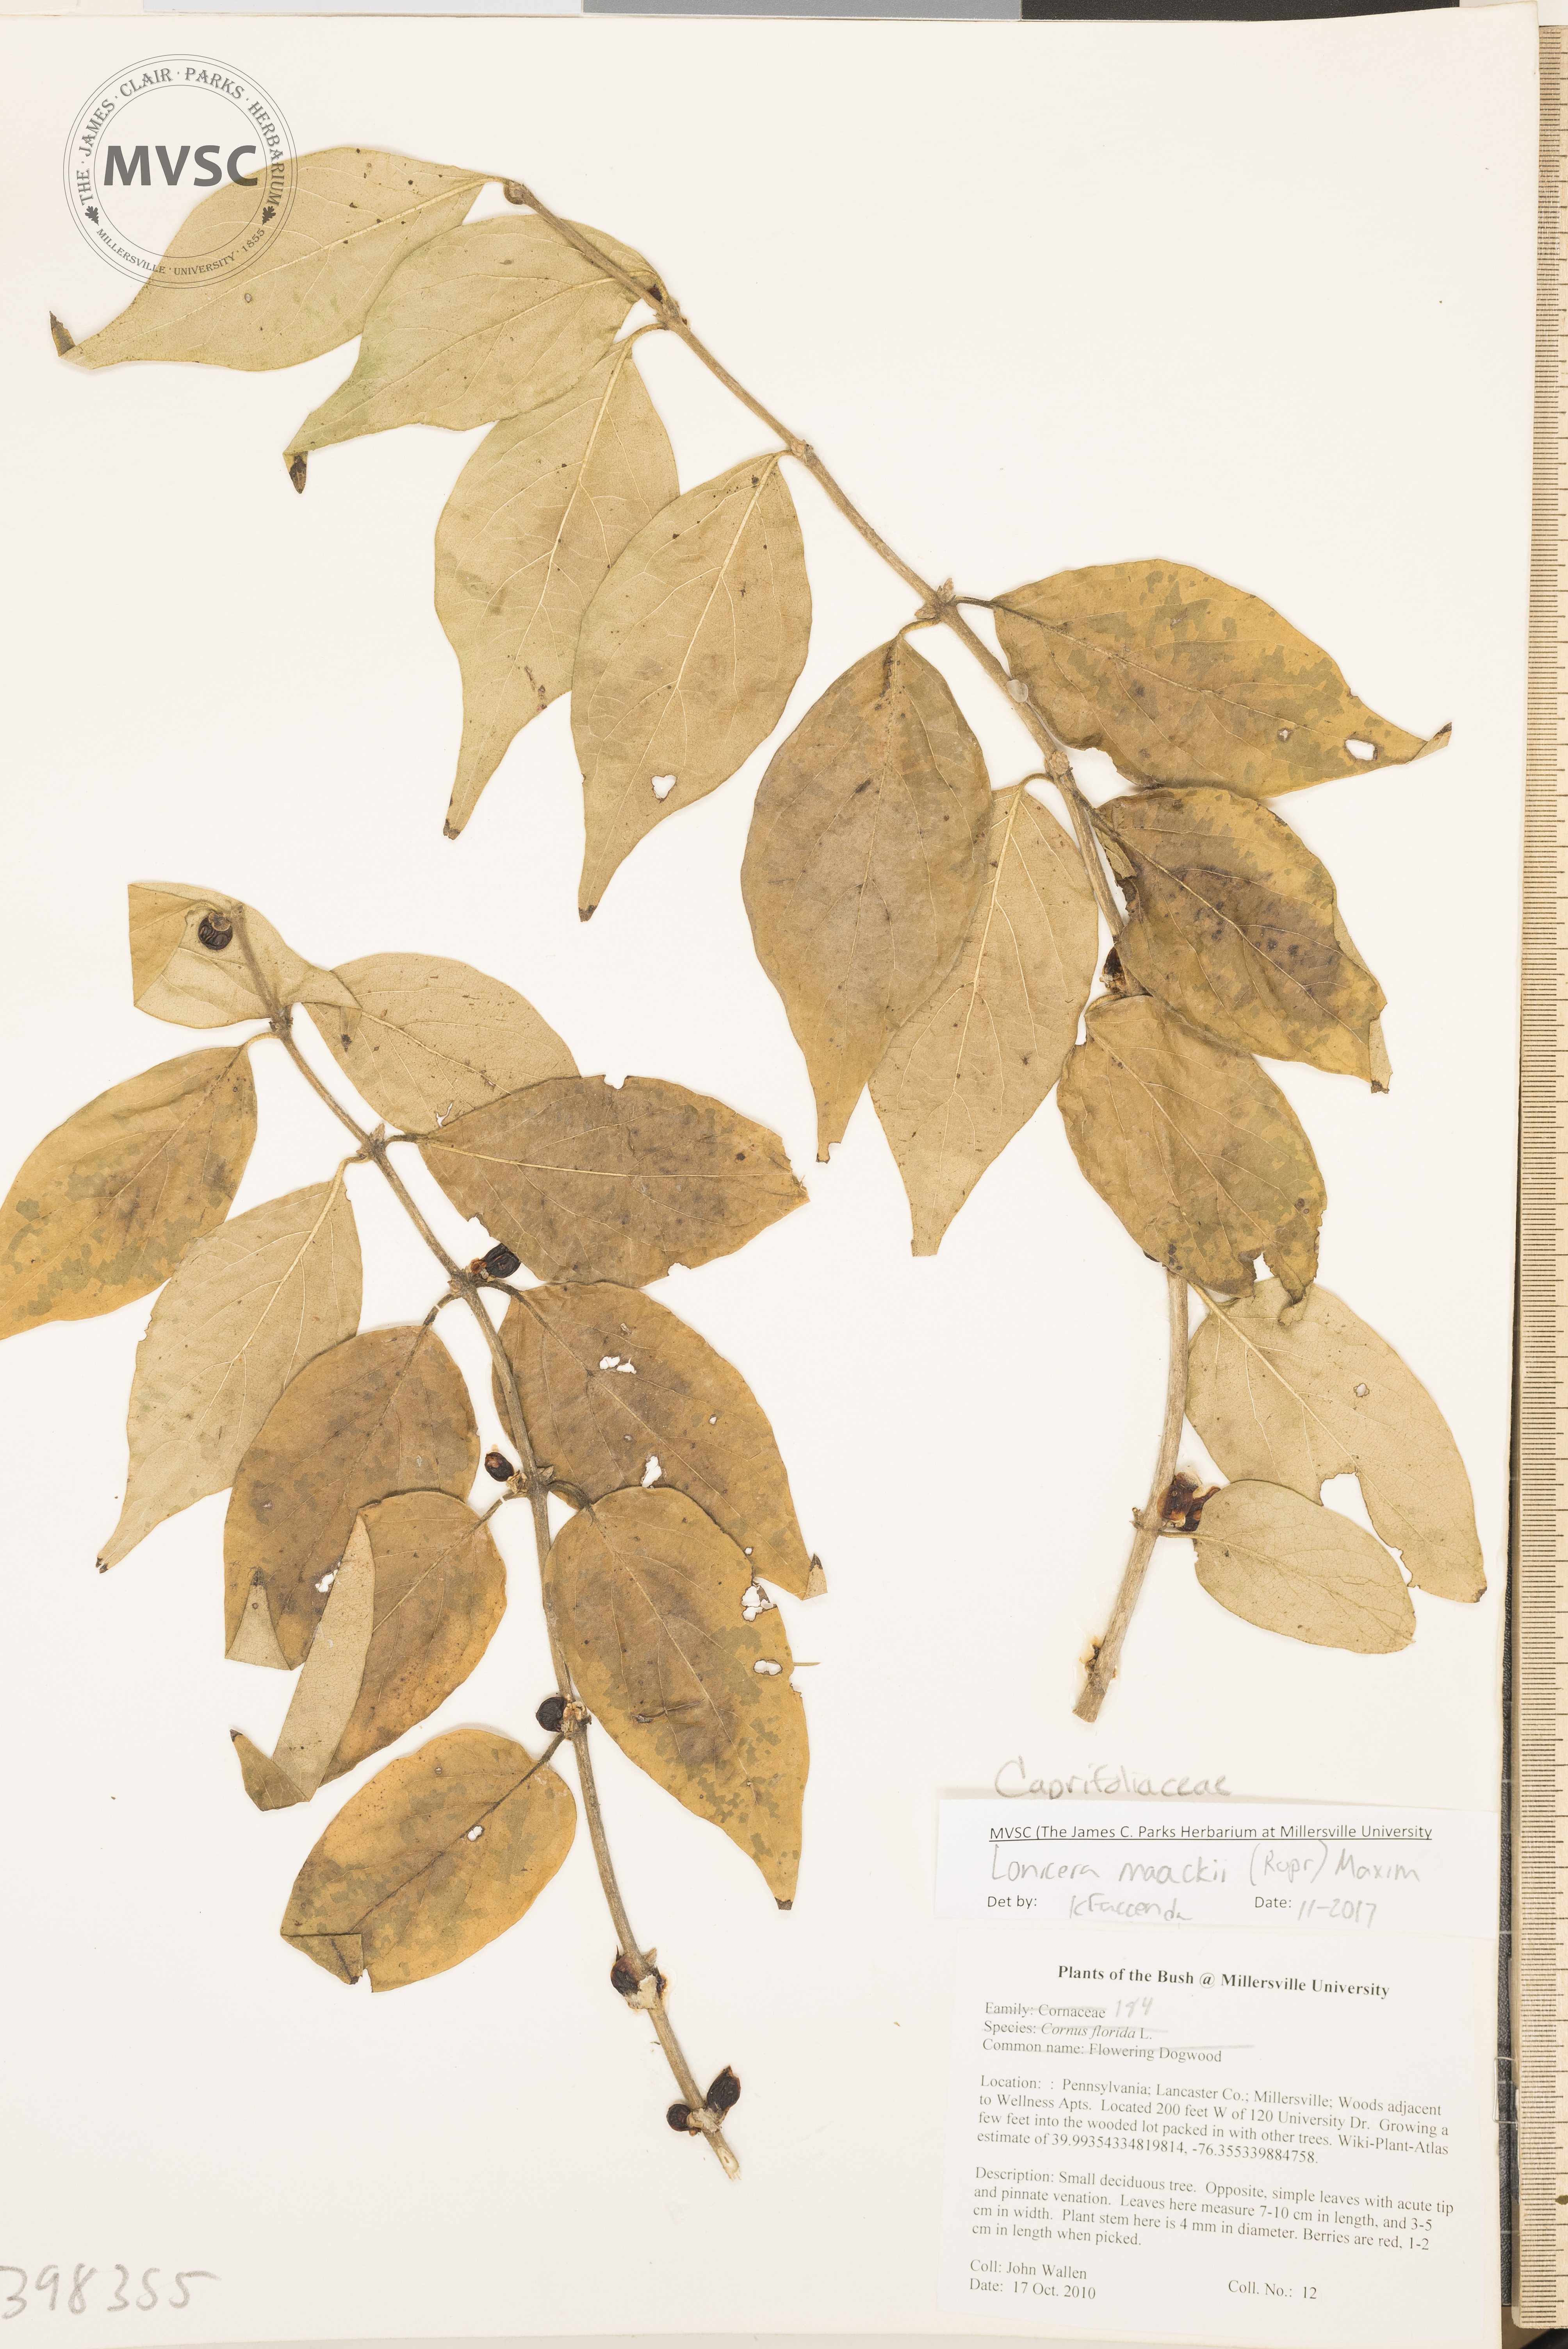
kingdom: Plantae
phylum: Tracheophyta
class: Magnoliopsida
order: Dipsacales
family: Caprifoliaceae
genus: Lonicera
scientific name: Lonicera maackii
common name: Honeysuckle
